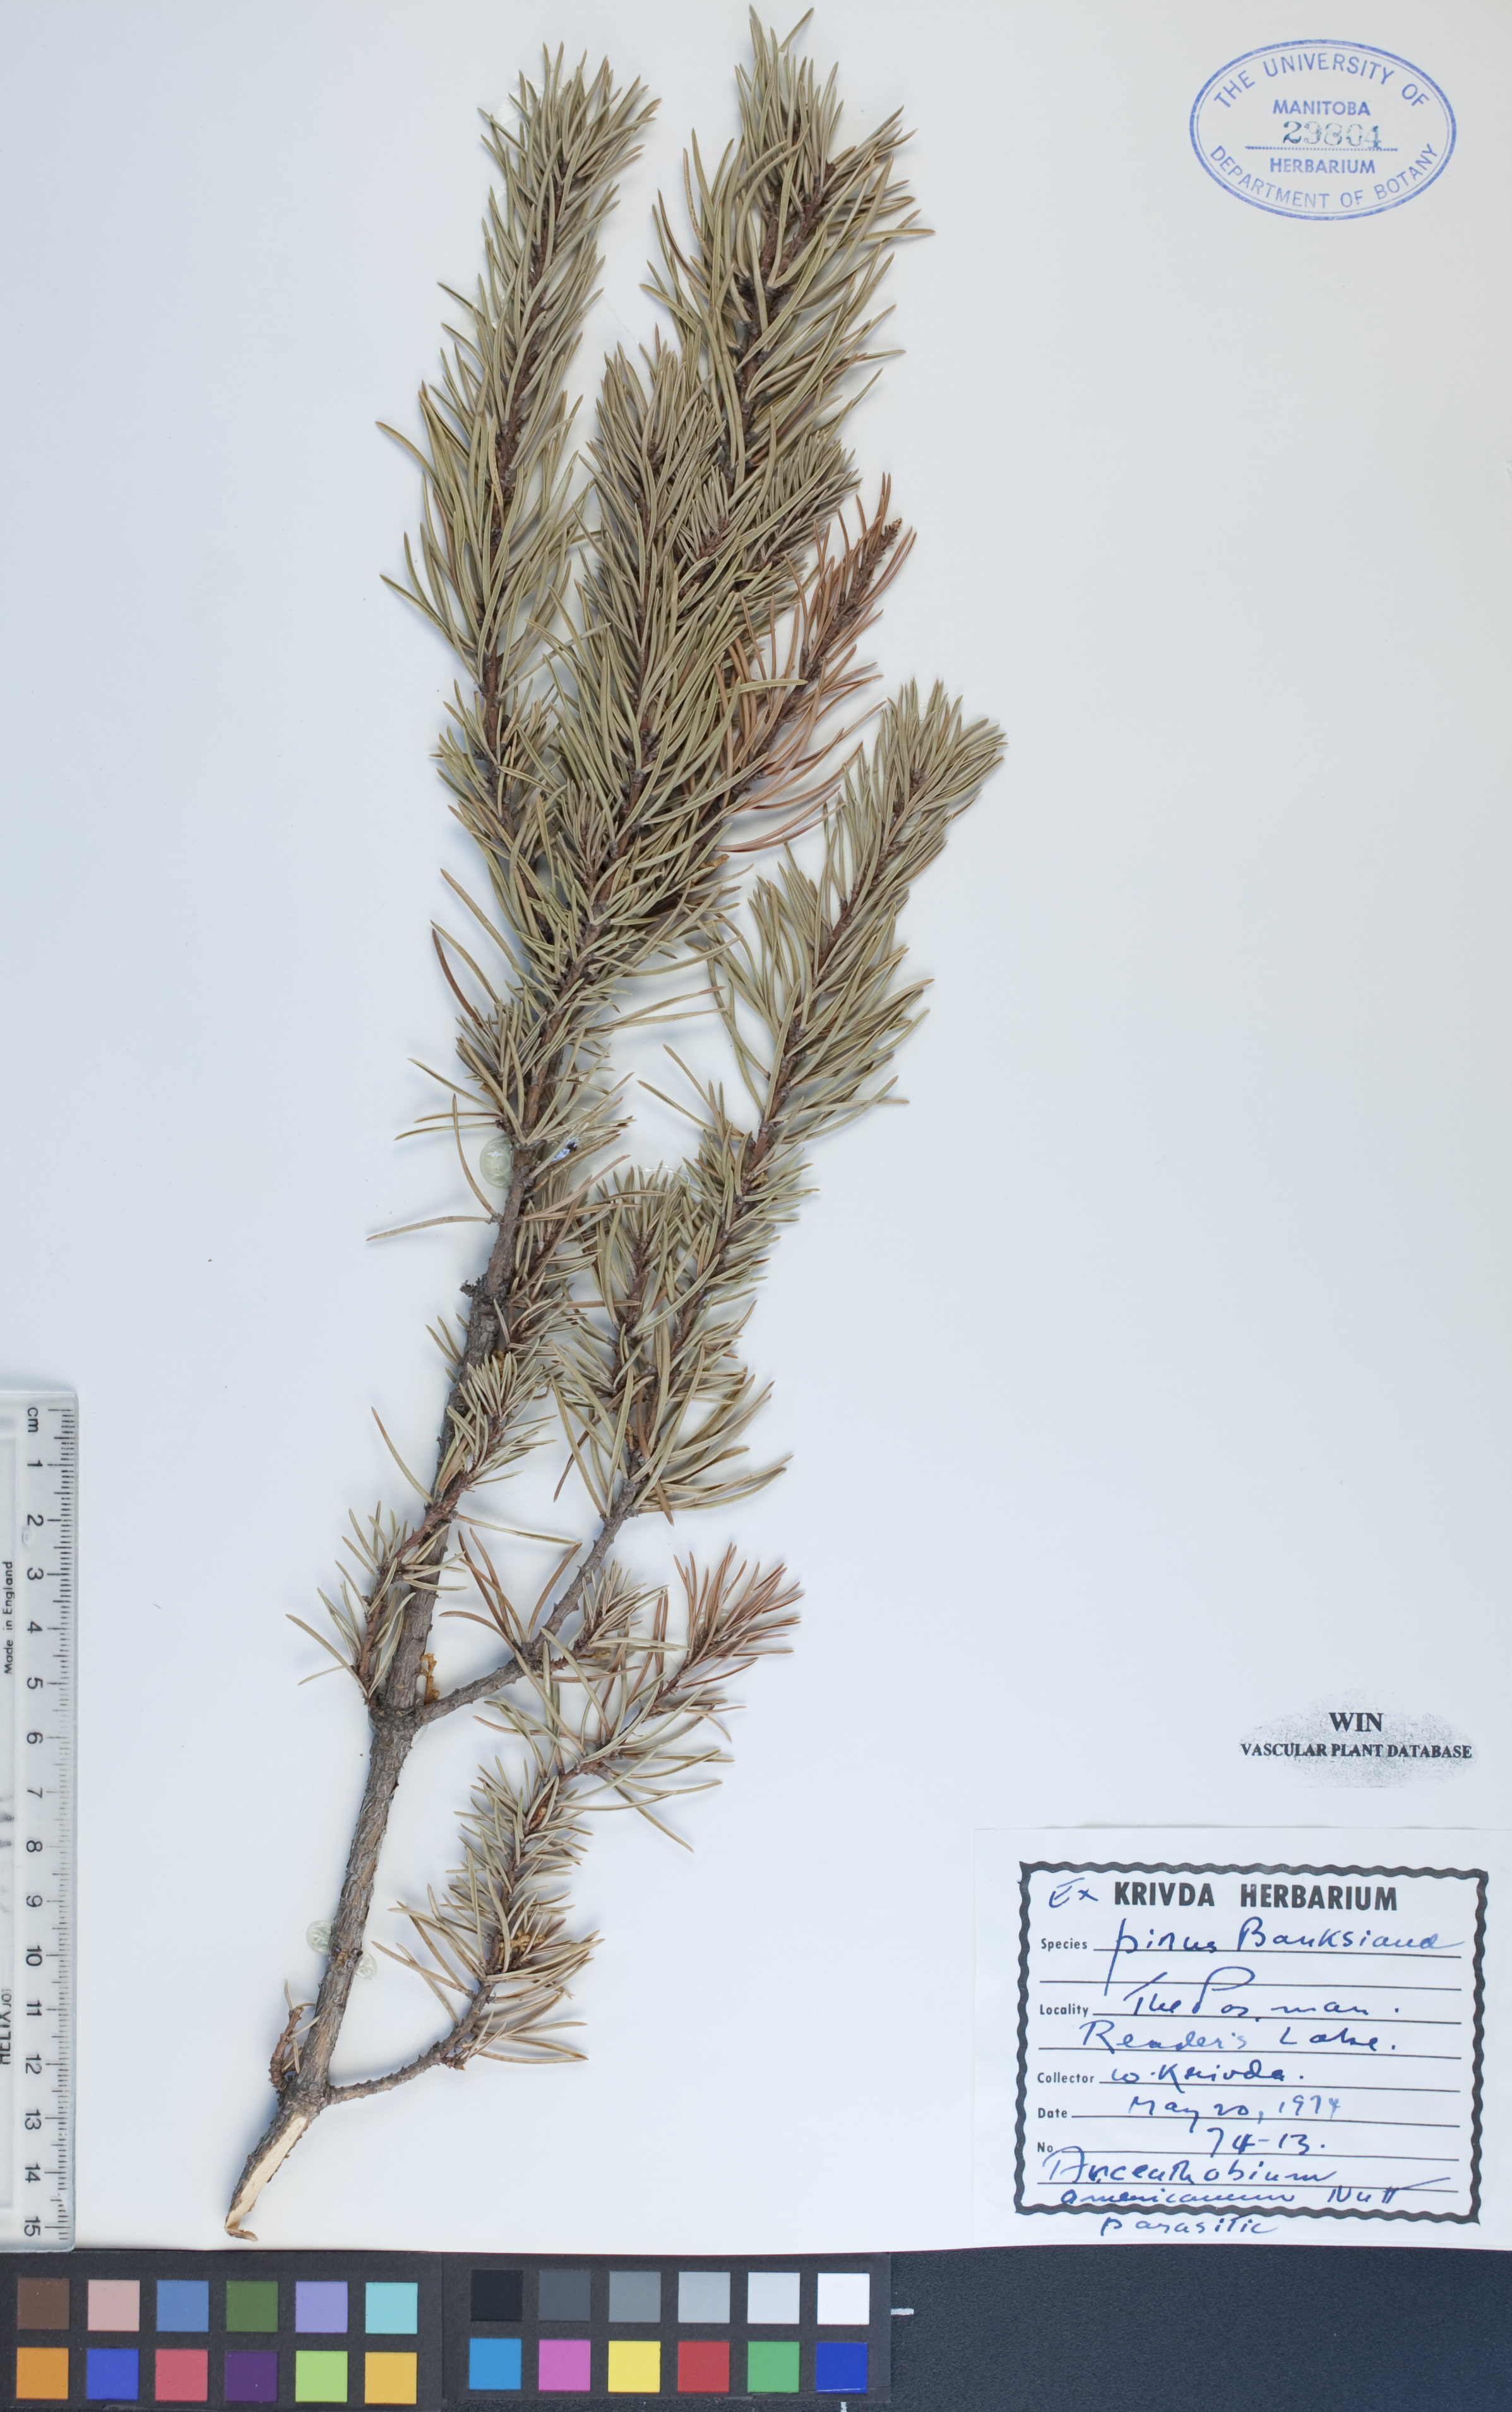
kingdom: Plantae
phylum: Tracheophyta
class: Pinopsida
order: Pinales
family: Pinaceae
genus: Pinus
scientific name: Pinus banksiana
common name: Jack pine
